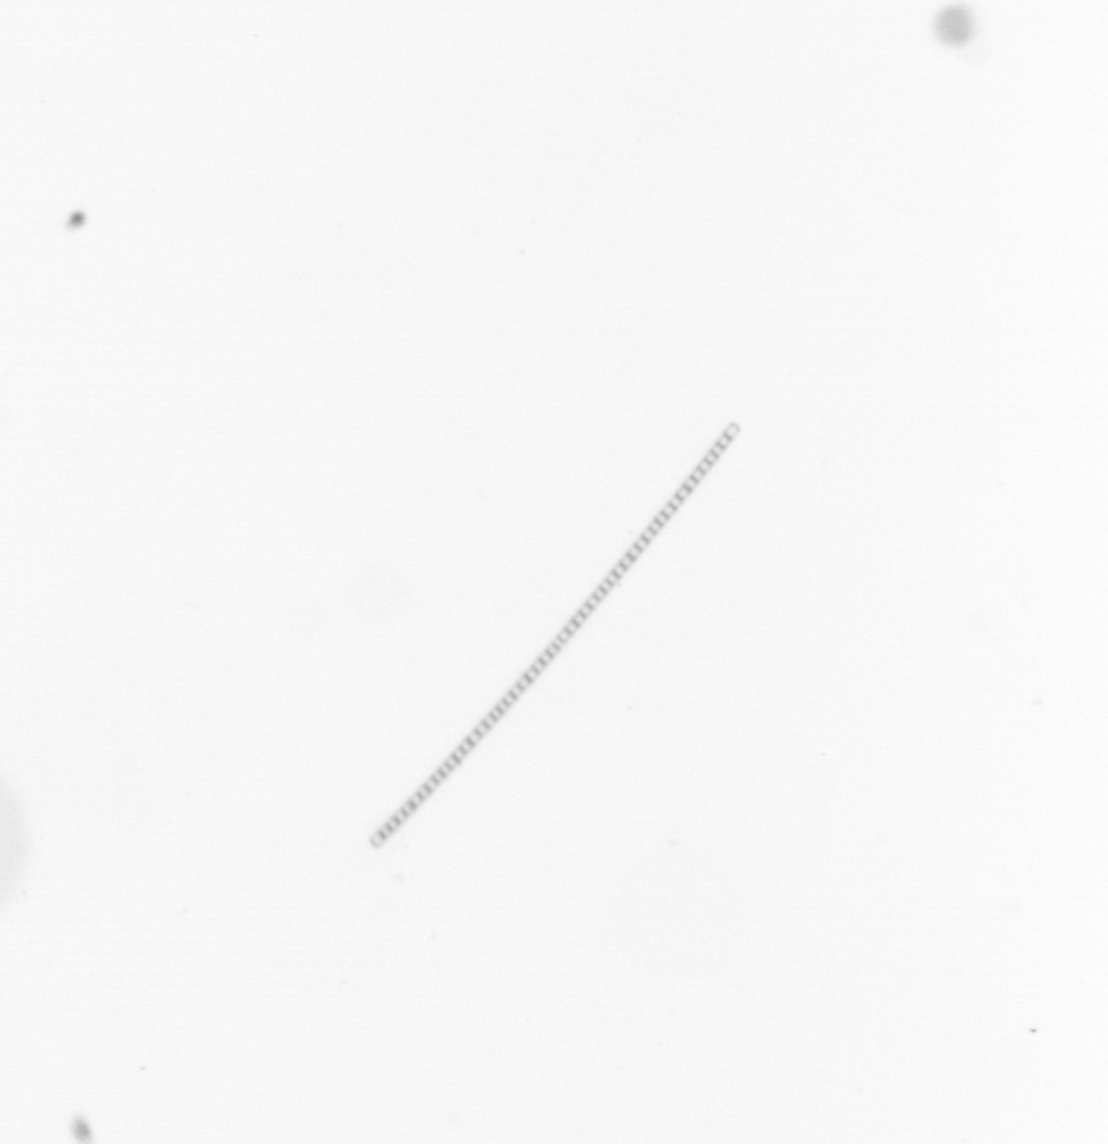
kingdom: Chromista
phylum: Ochrophyta
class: Bacillariophyceae
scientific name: Bacillariophyceae
